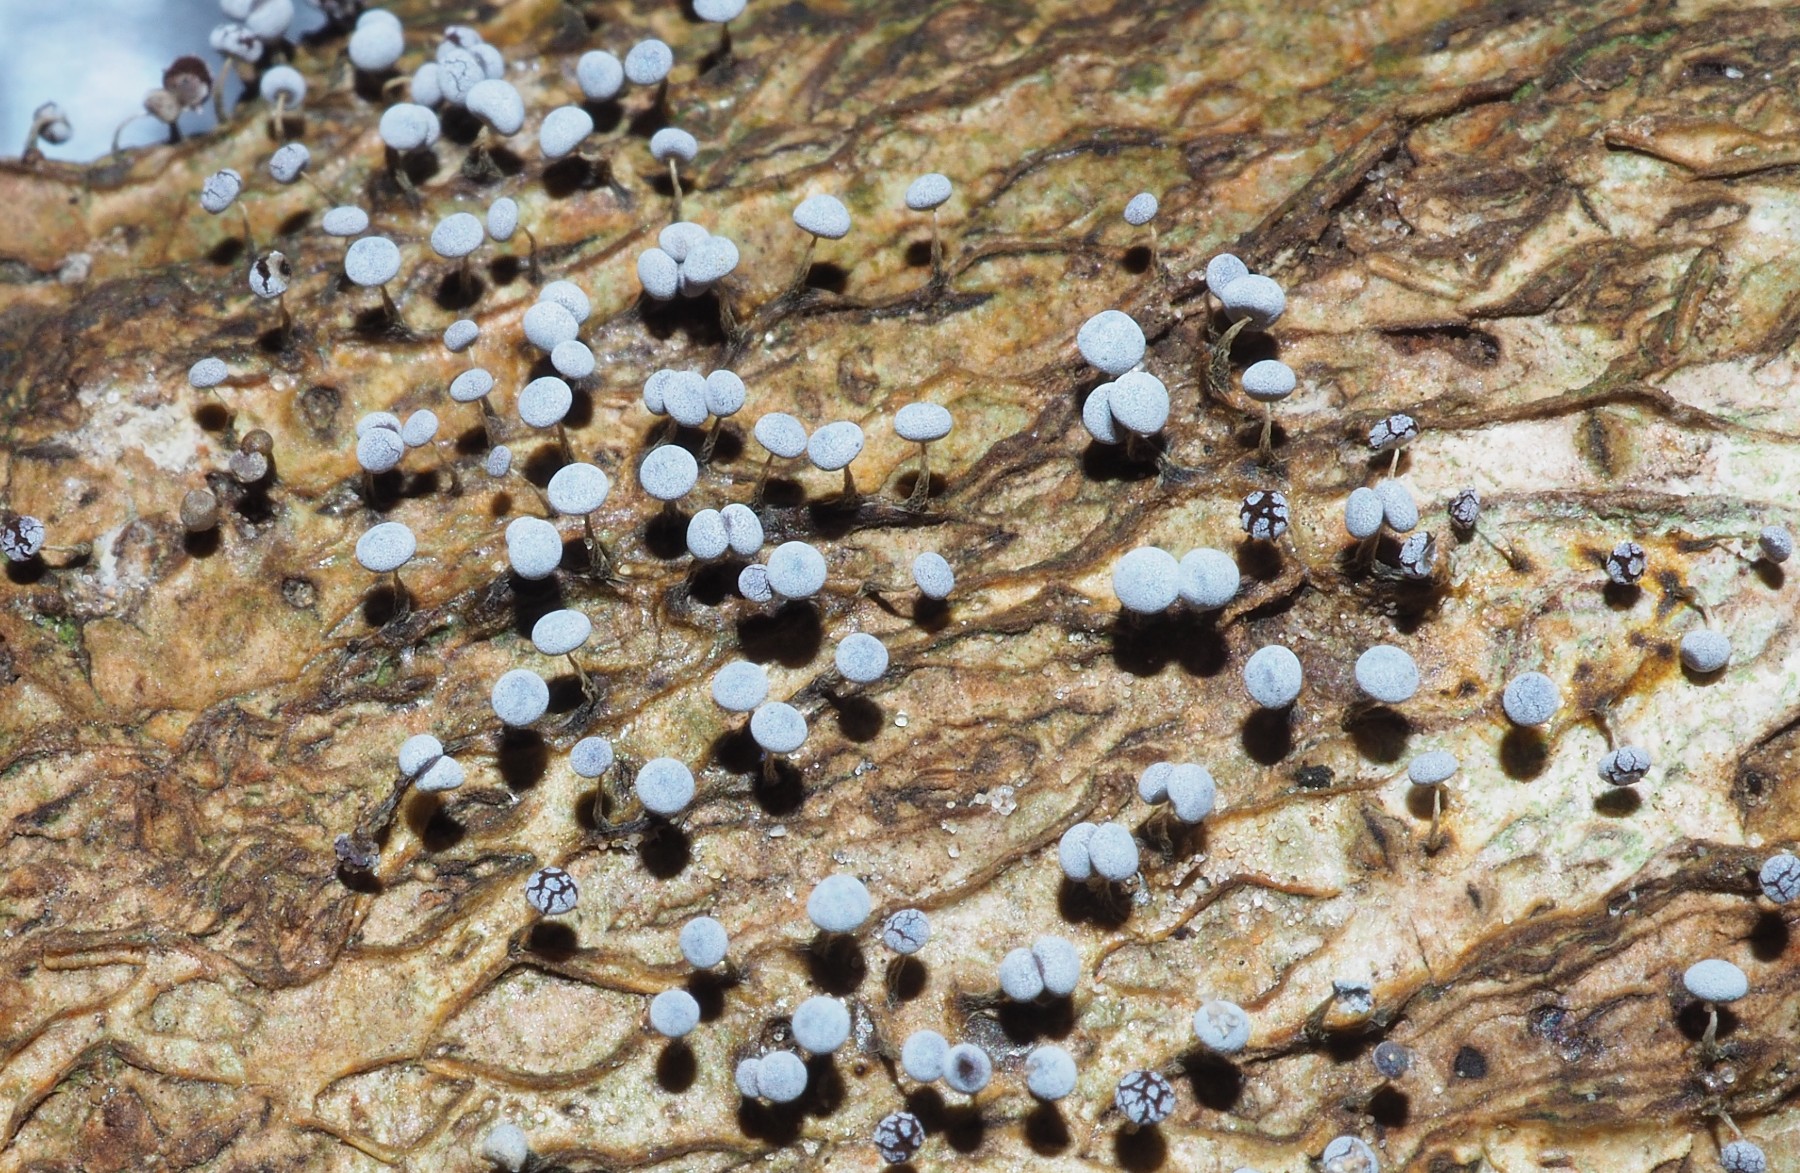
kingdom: Protozoa
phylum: Mycetozoa
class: Myxomycetes
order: Physarales
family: Physaraceae
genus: Physarum
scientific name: Physarum
